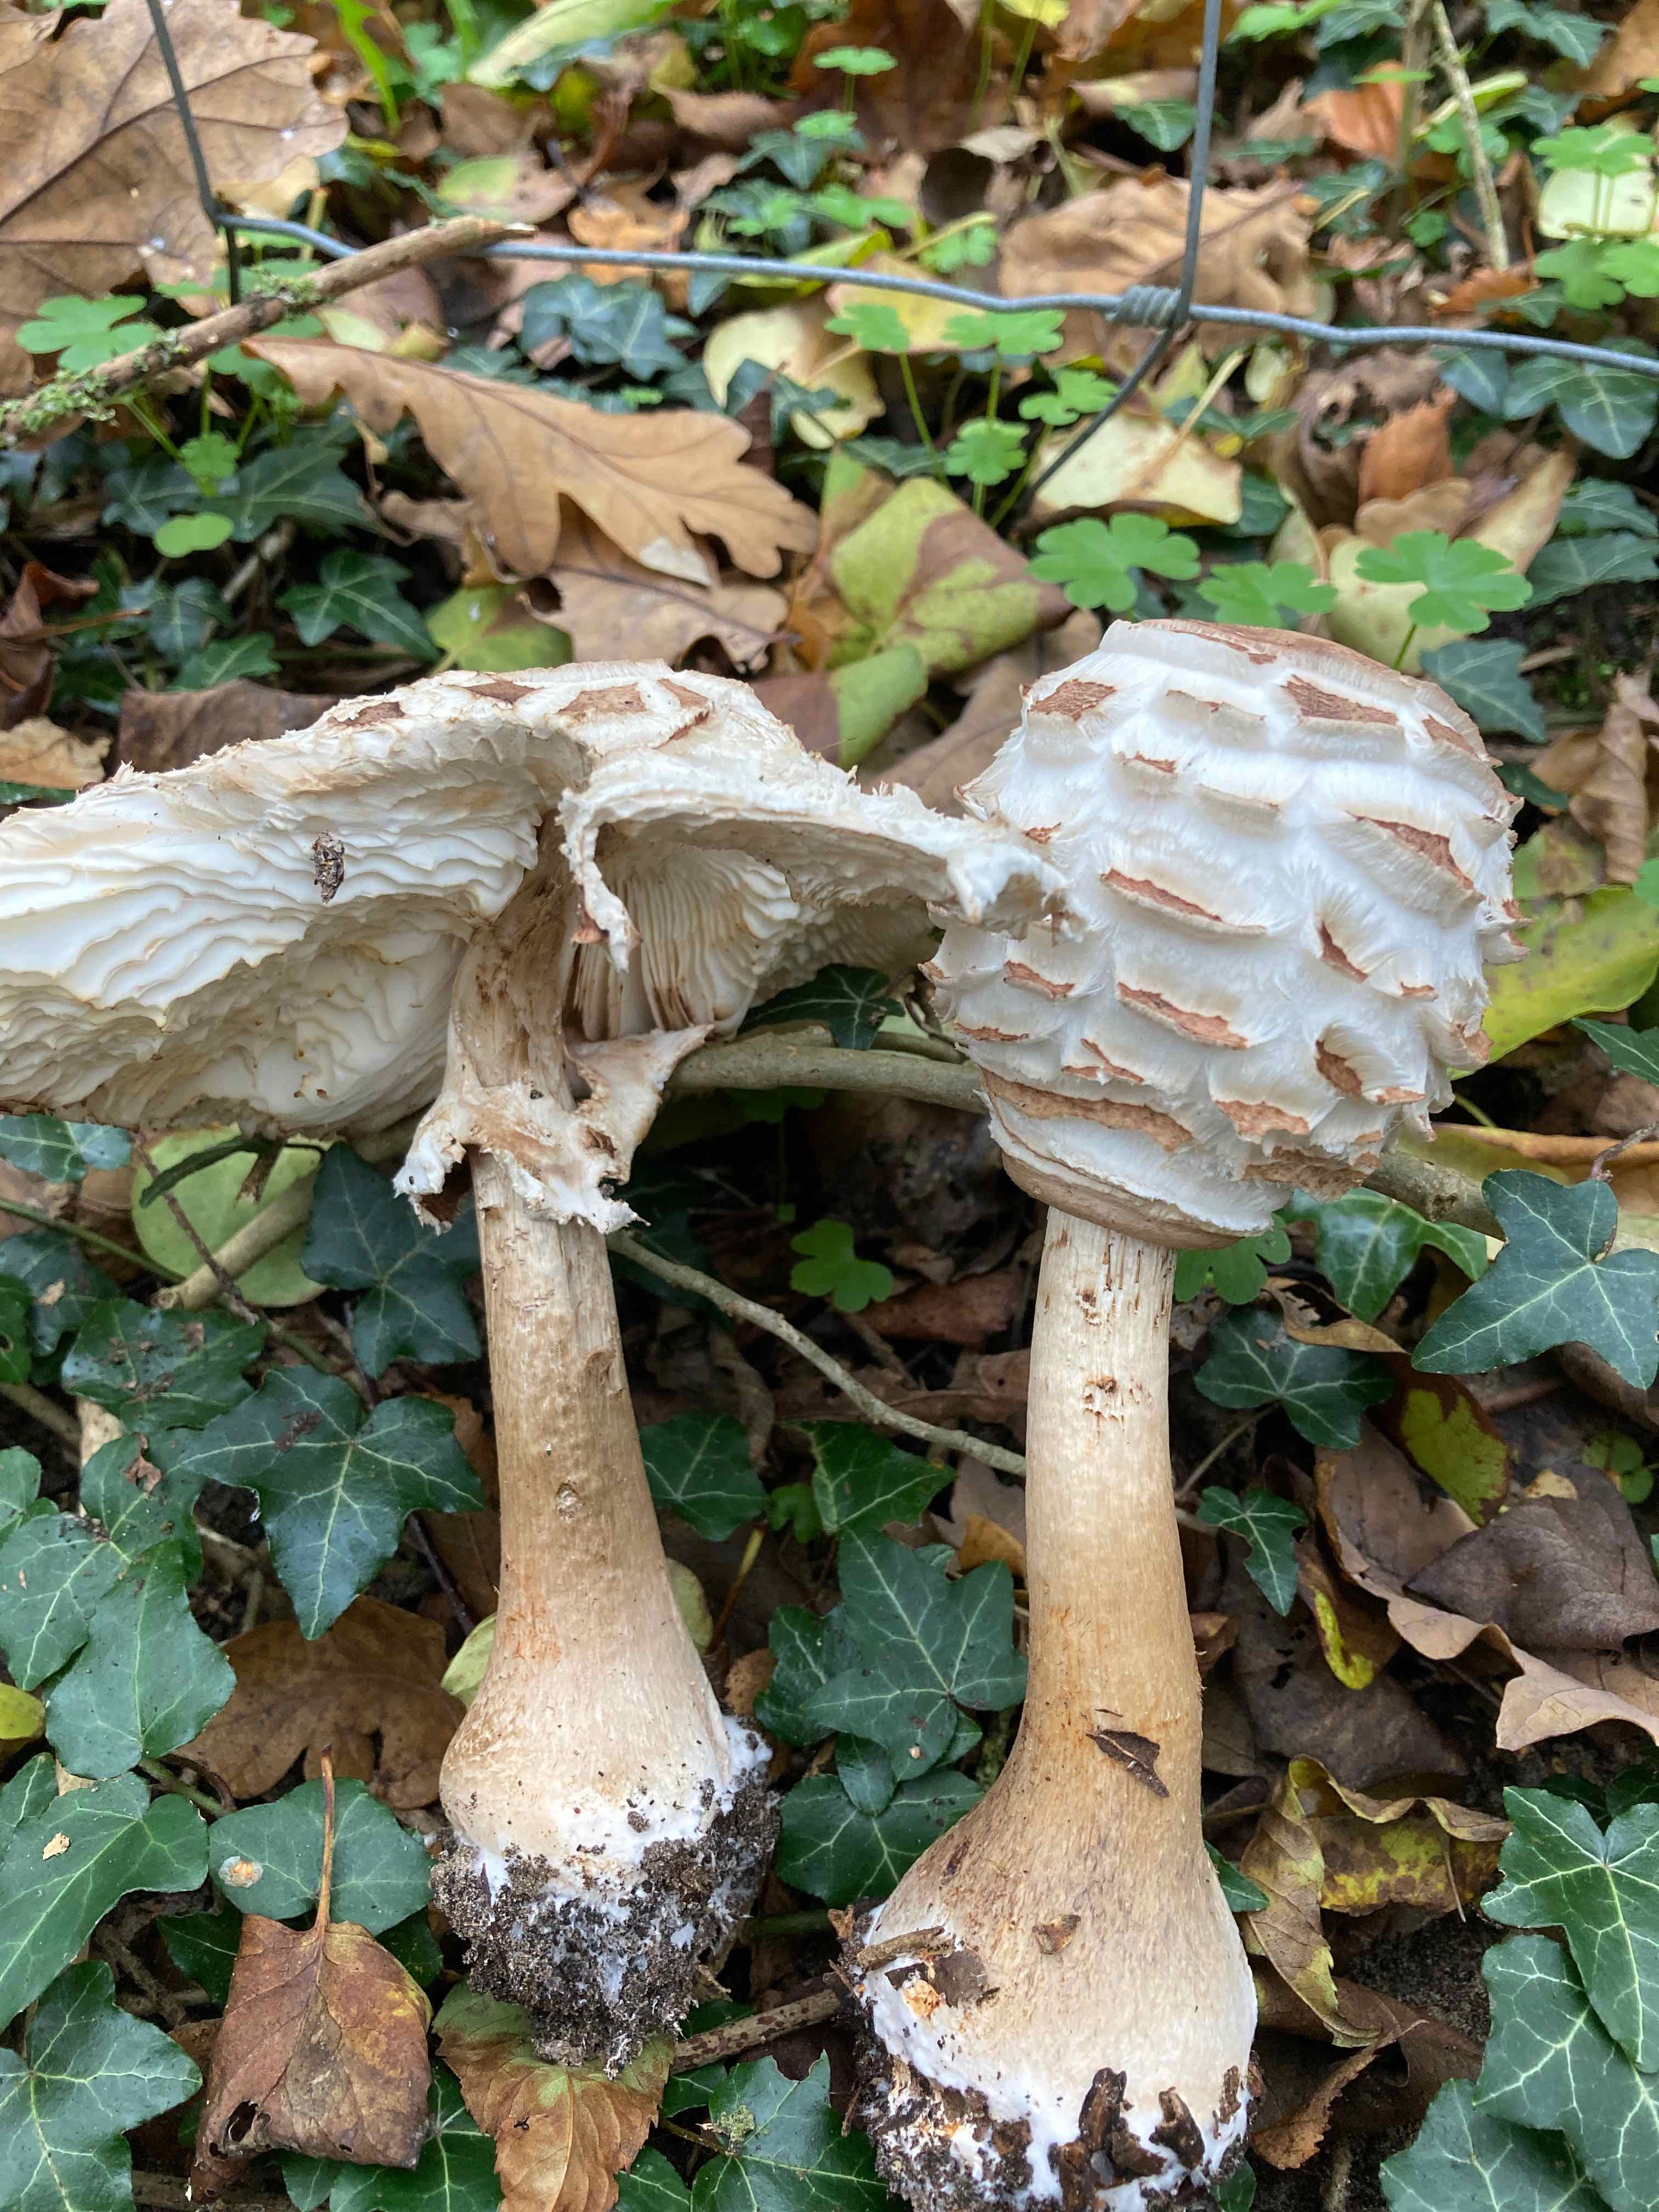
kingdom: Fungi
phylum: Basidiomycota
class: Agaricomycetes
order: Agaricales
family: Agaricaceae
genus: Chlorophyllum
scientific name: Chlorophyllum brunneum
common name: giftig rabarberhat
